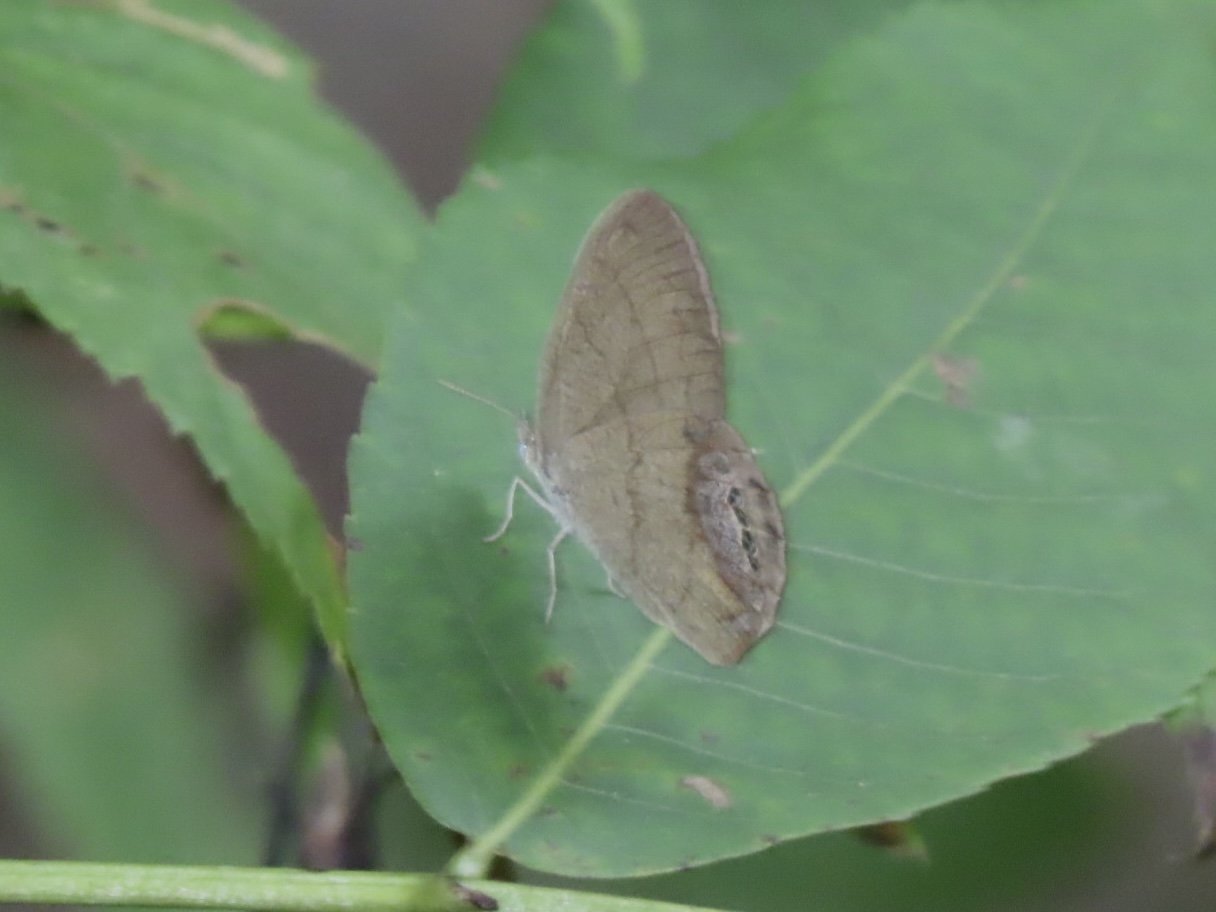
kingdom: Animalia
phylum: Arthropoda
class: Insecta
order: Lepidoptera
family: Nymphalidae
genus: Euptychia
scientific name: Euptychia cornelius
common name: Gemmed Satyr
